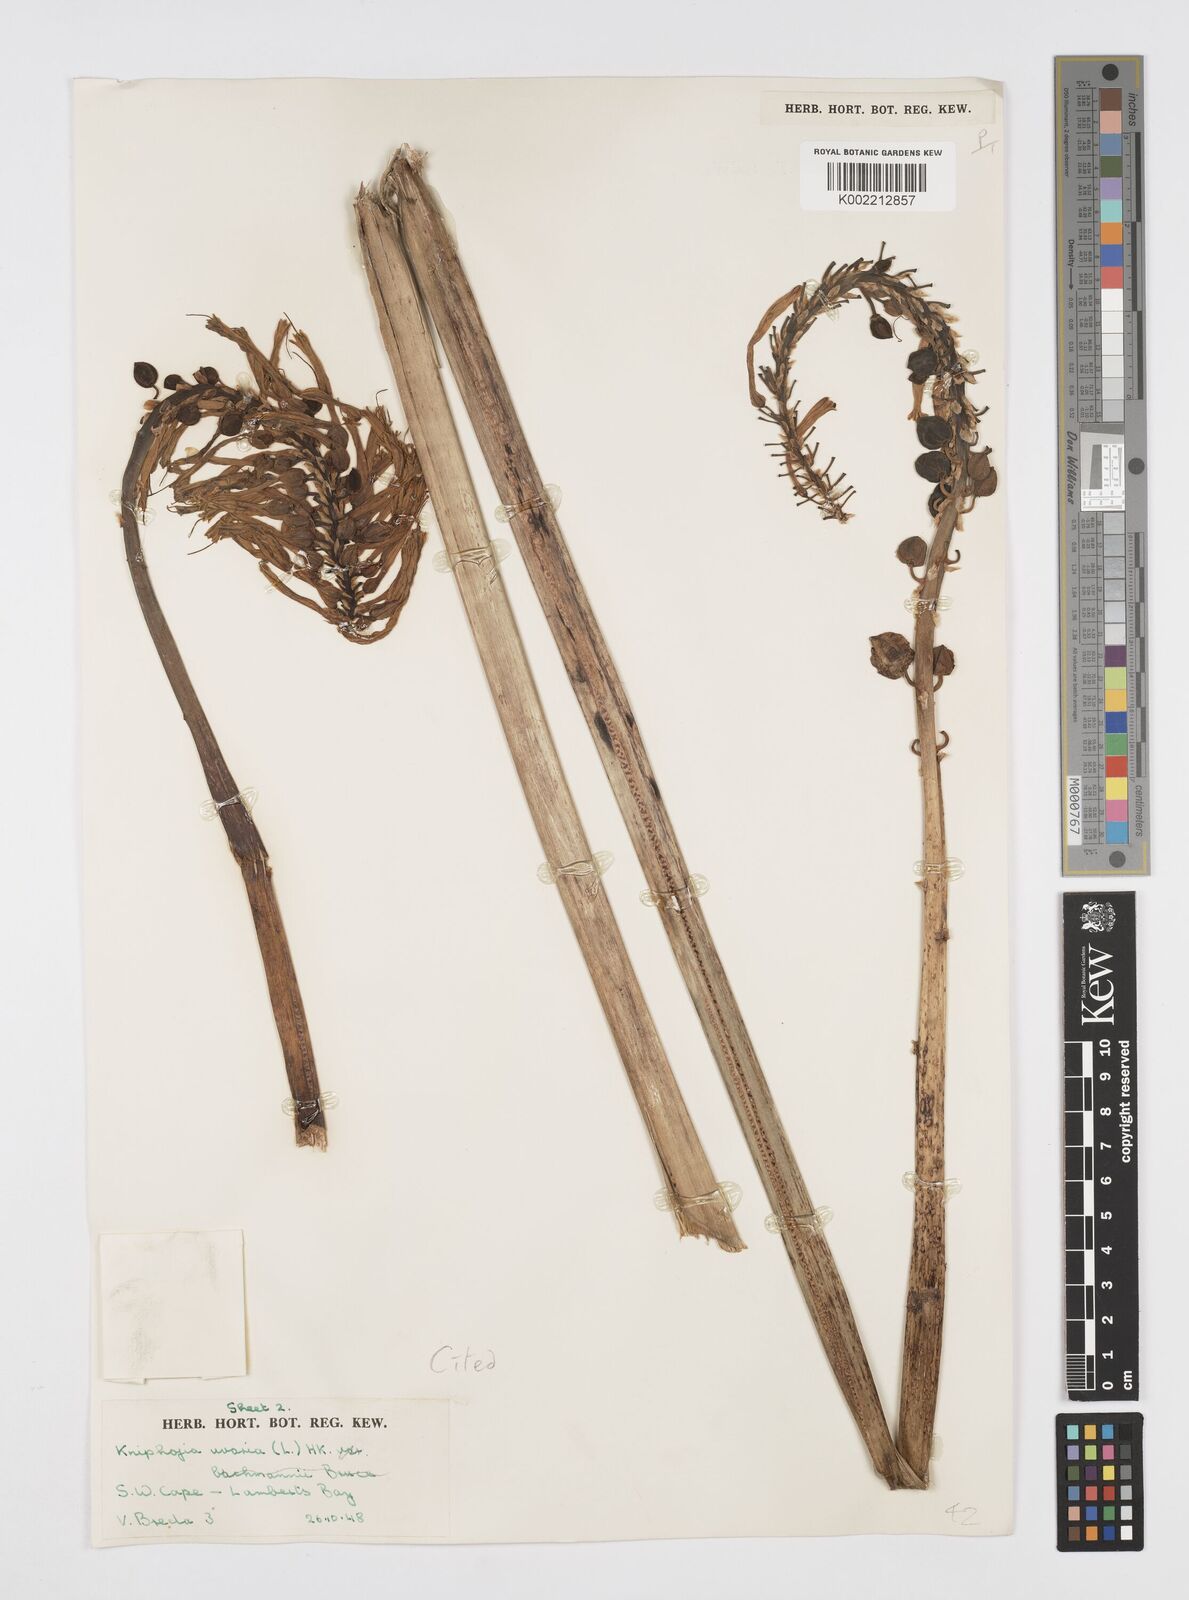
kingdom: Plantae
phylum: Tracheophyta
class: Liliopsida
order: Asparagales
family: Asphodelaceae
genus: Kniphofia
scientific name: Kniphofia uvaria
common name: Red-hot-poker
